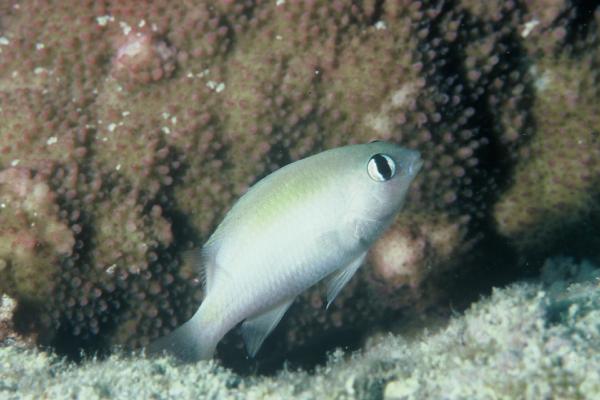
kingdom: Animalia
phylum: Chordata
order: Perciformes
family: Pomacentridae
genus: Plectroglyphidodon
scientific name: Plectroglyphidodon imparipennis
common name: Brighteye damsel
